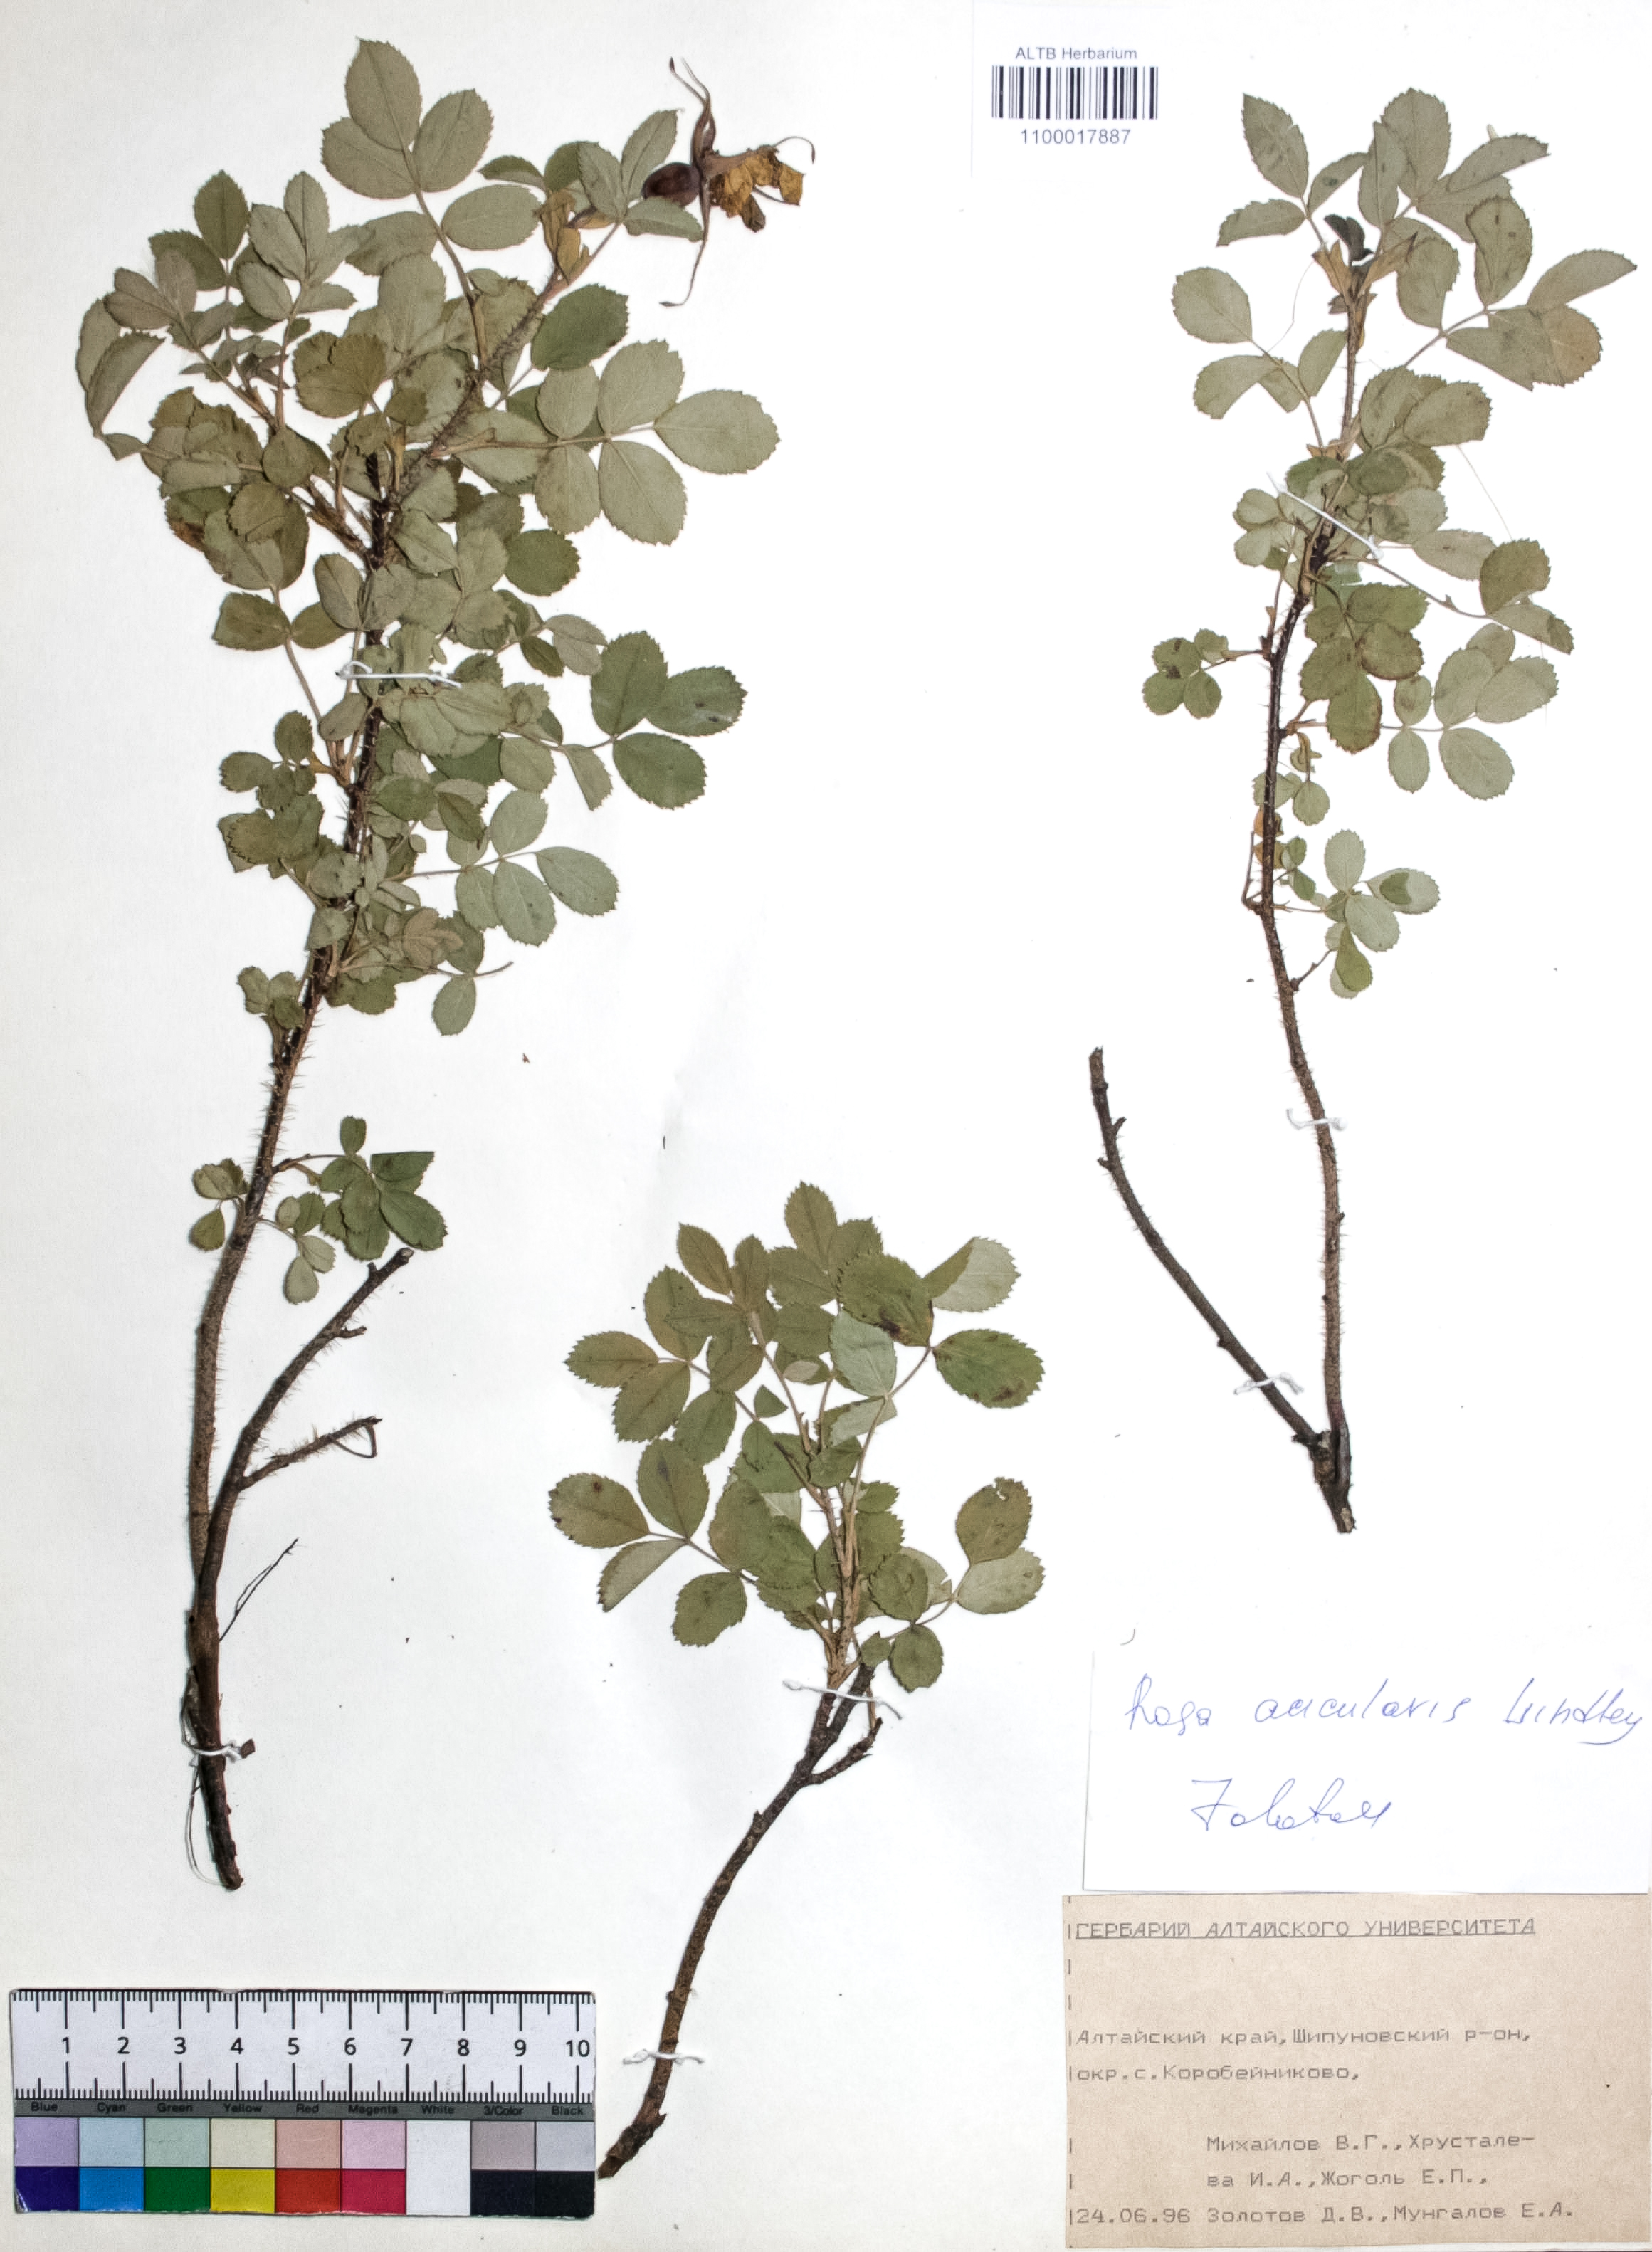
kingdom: Plantae
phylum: Tracheophyta
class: Magnoliopsida
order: Rosales
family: Rosaceae
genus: Rosa
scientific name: Rosa acicularis
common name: Prickly rose
